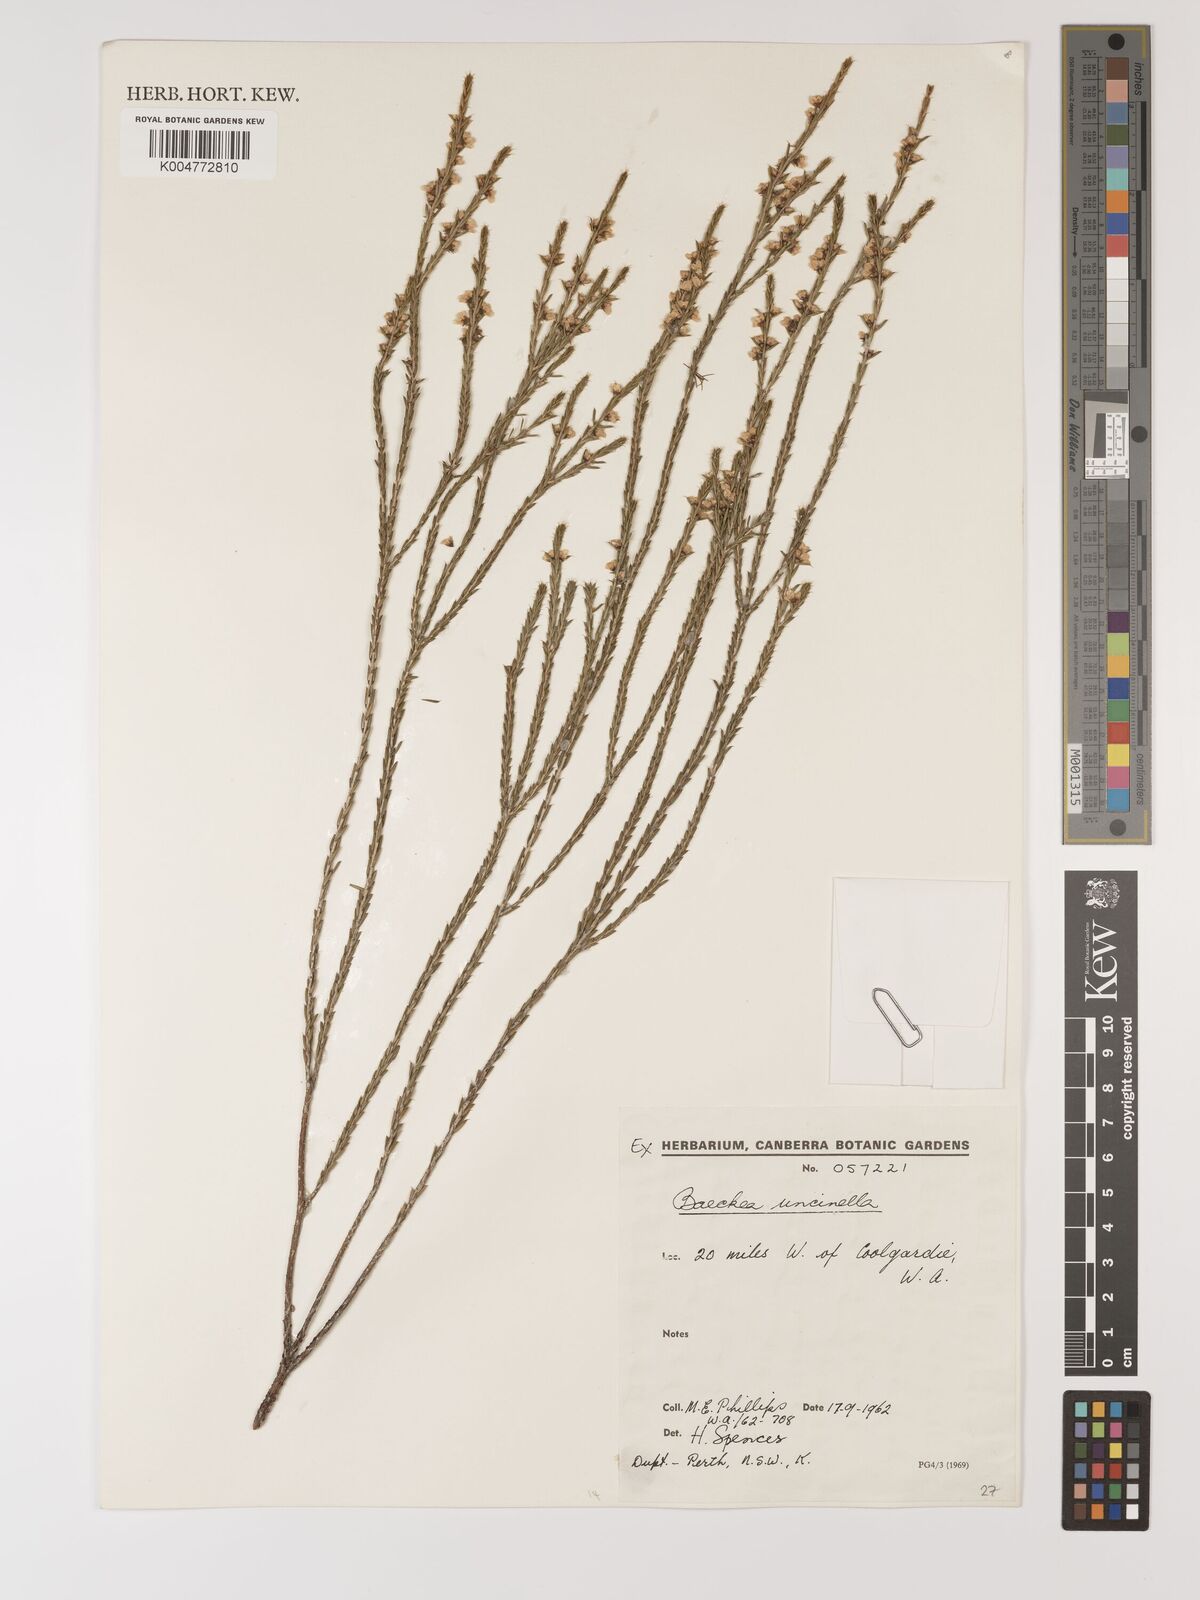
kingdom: Plantae
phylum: Tracheophyta
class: Magnoliopsida
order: Myrtales
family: Myrtaceae
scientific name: Myrtaceae
